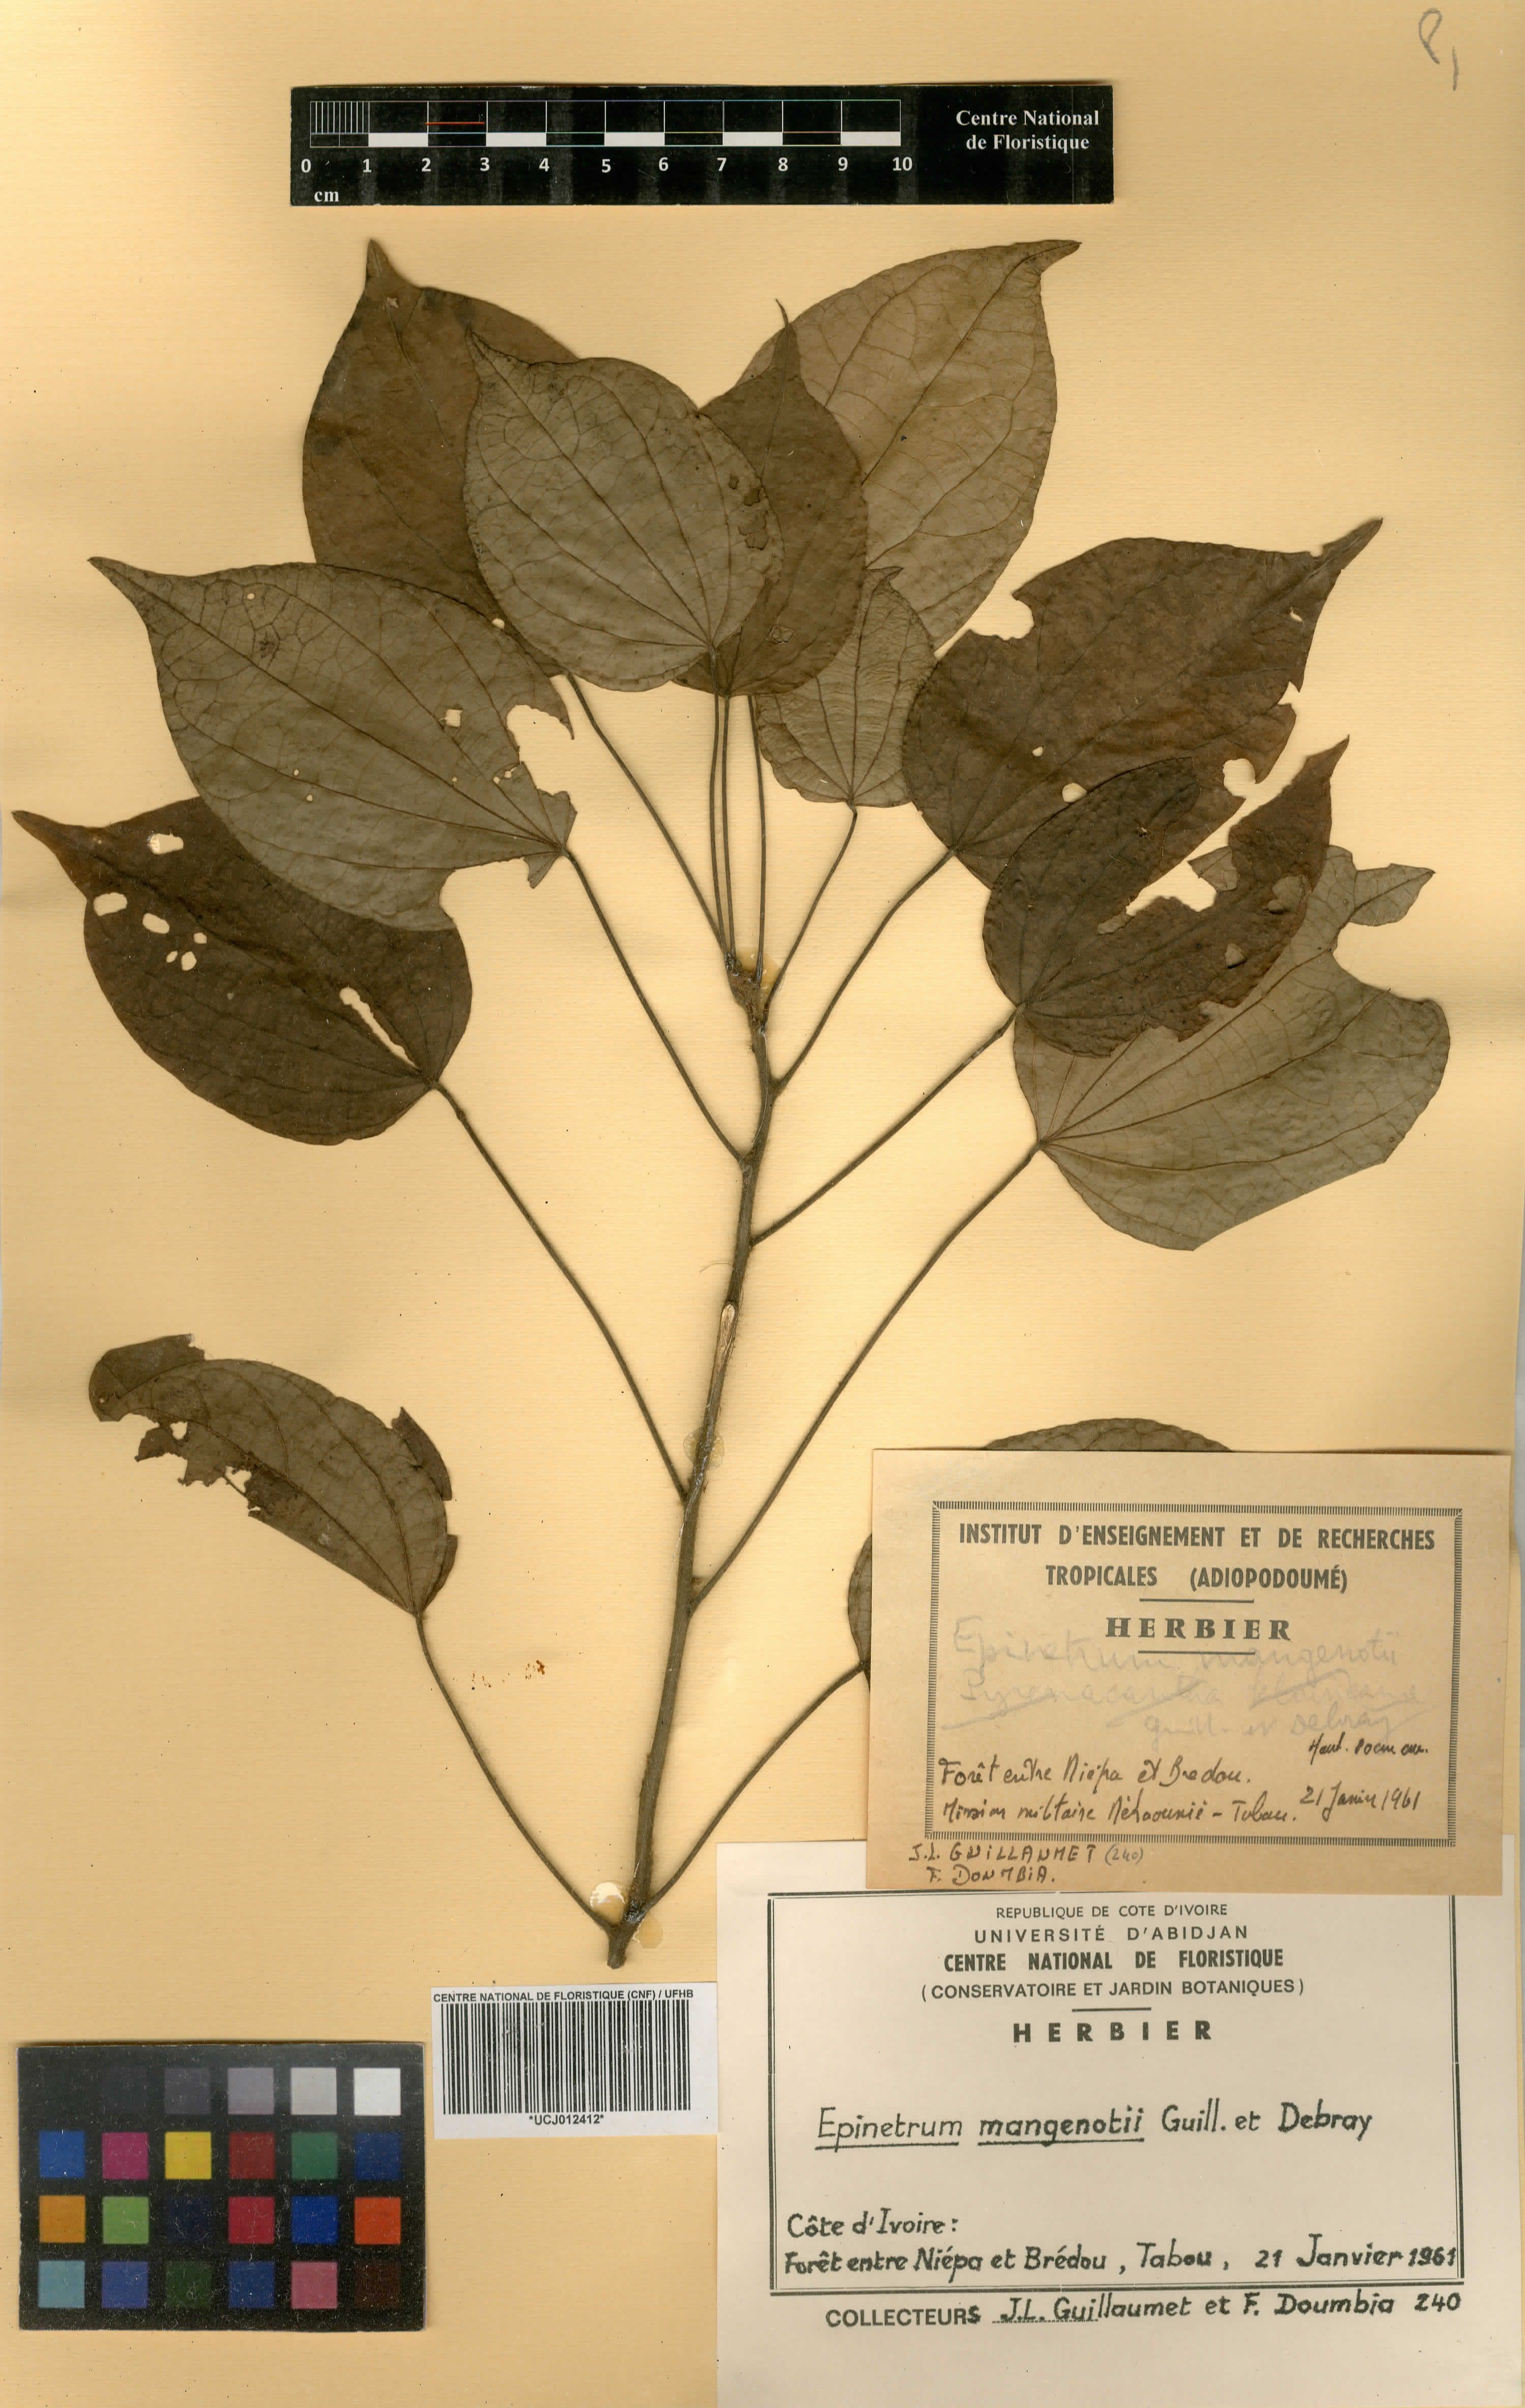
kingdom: Plantae
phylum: Tracheophyta
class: Magnoliopsida
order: Ranunculales
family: Menispermaceae
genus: Albertisia
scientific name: Albertisia mangenotii
